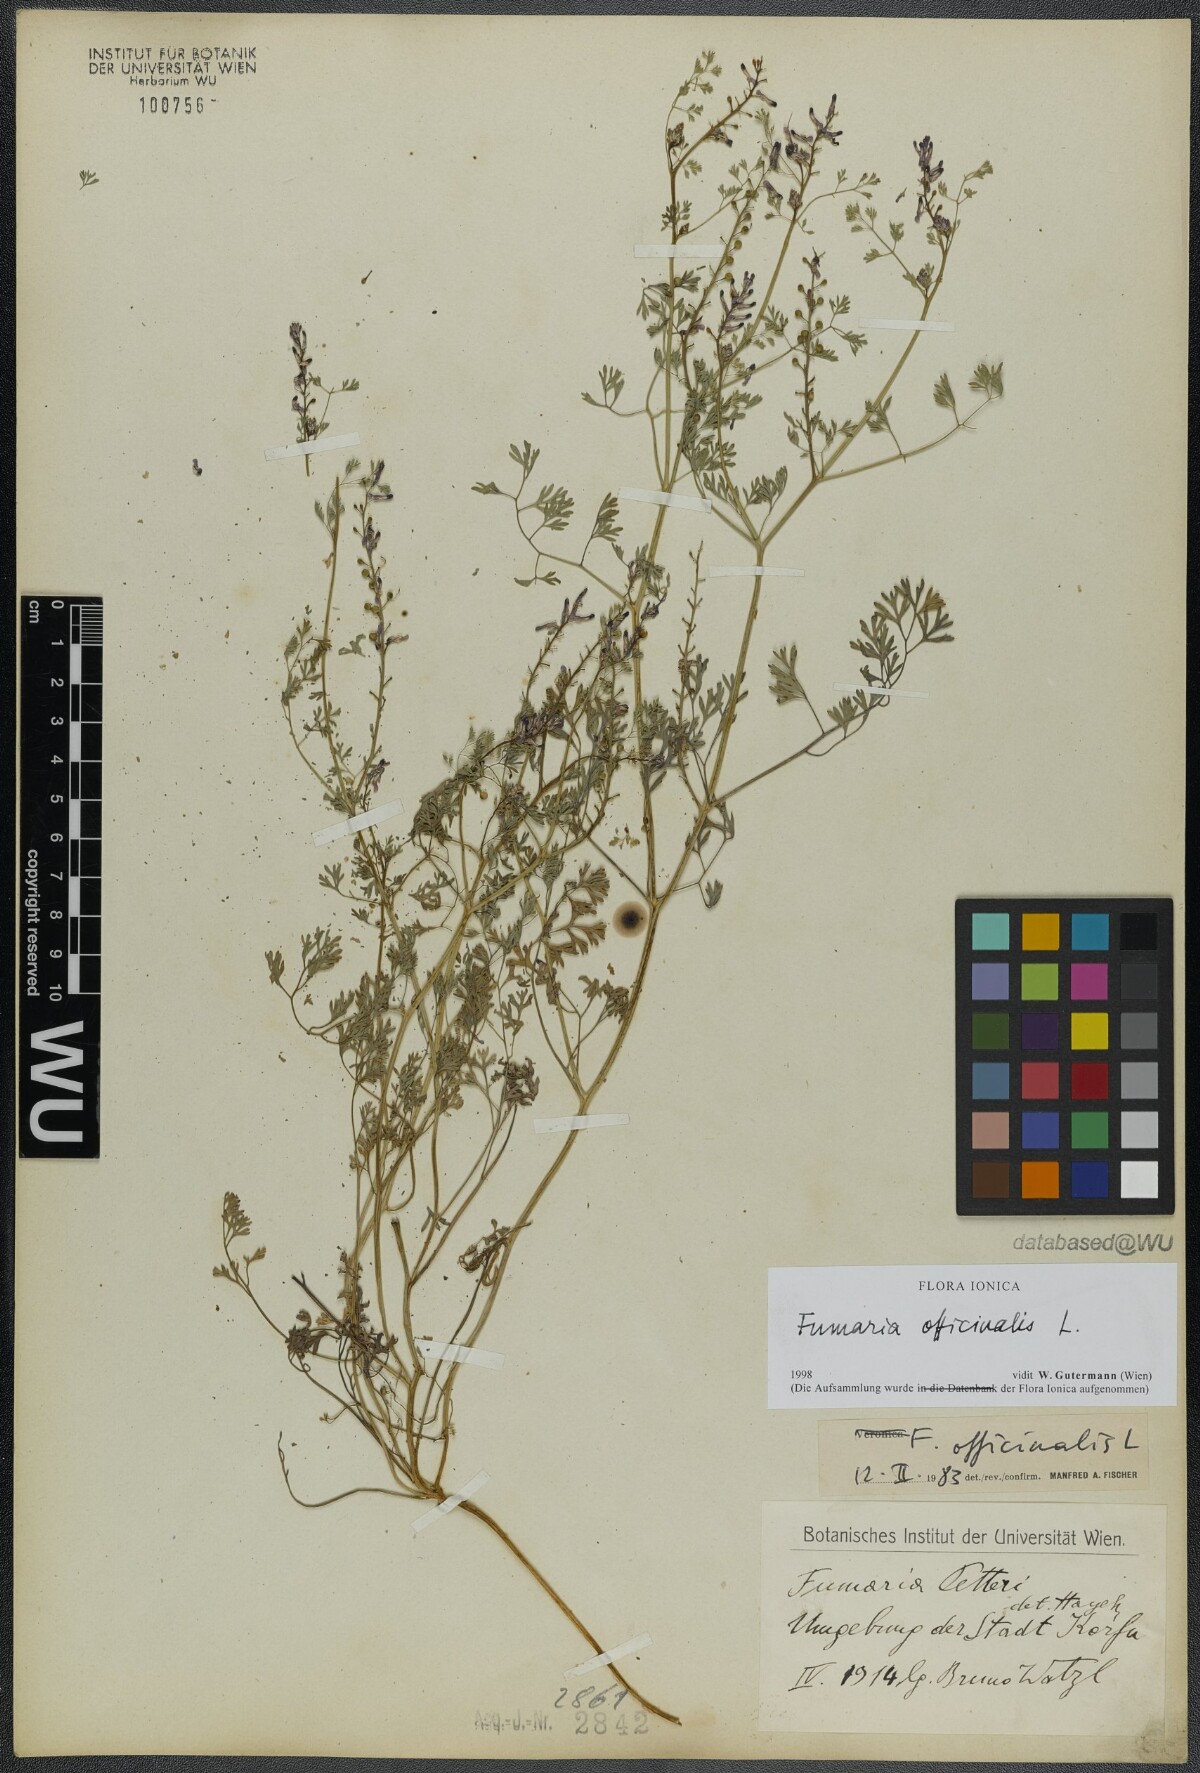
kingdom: Plantae
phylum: Tracheophyta
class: Magnoliopsida
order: Ranunculales
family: Papaveraceae
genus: Fumaria
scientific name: Fumaria officinalis
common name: Common fumitory
